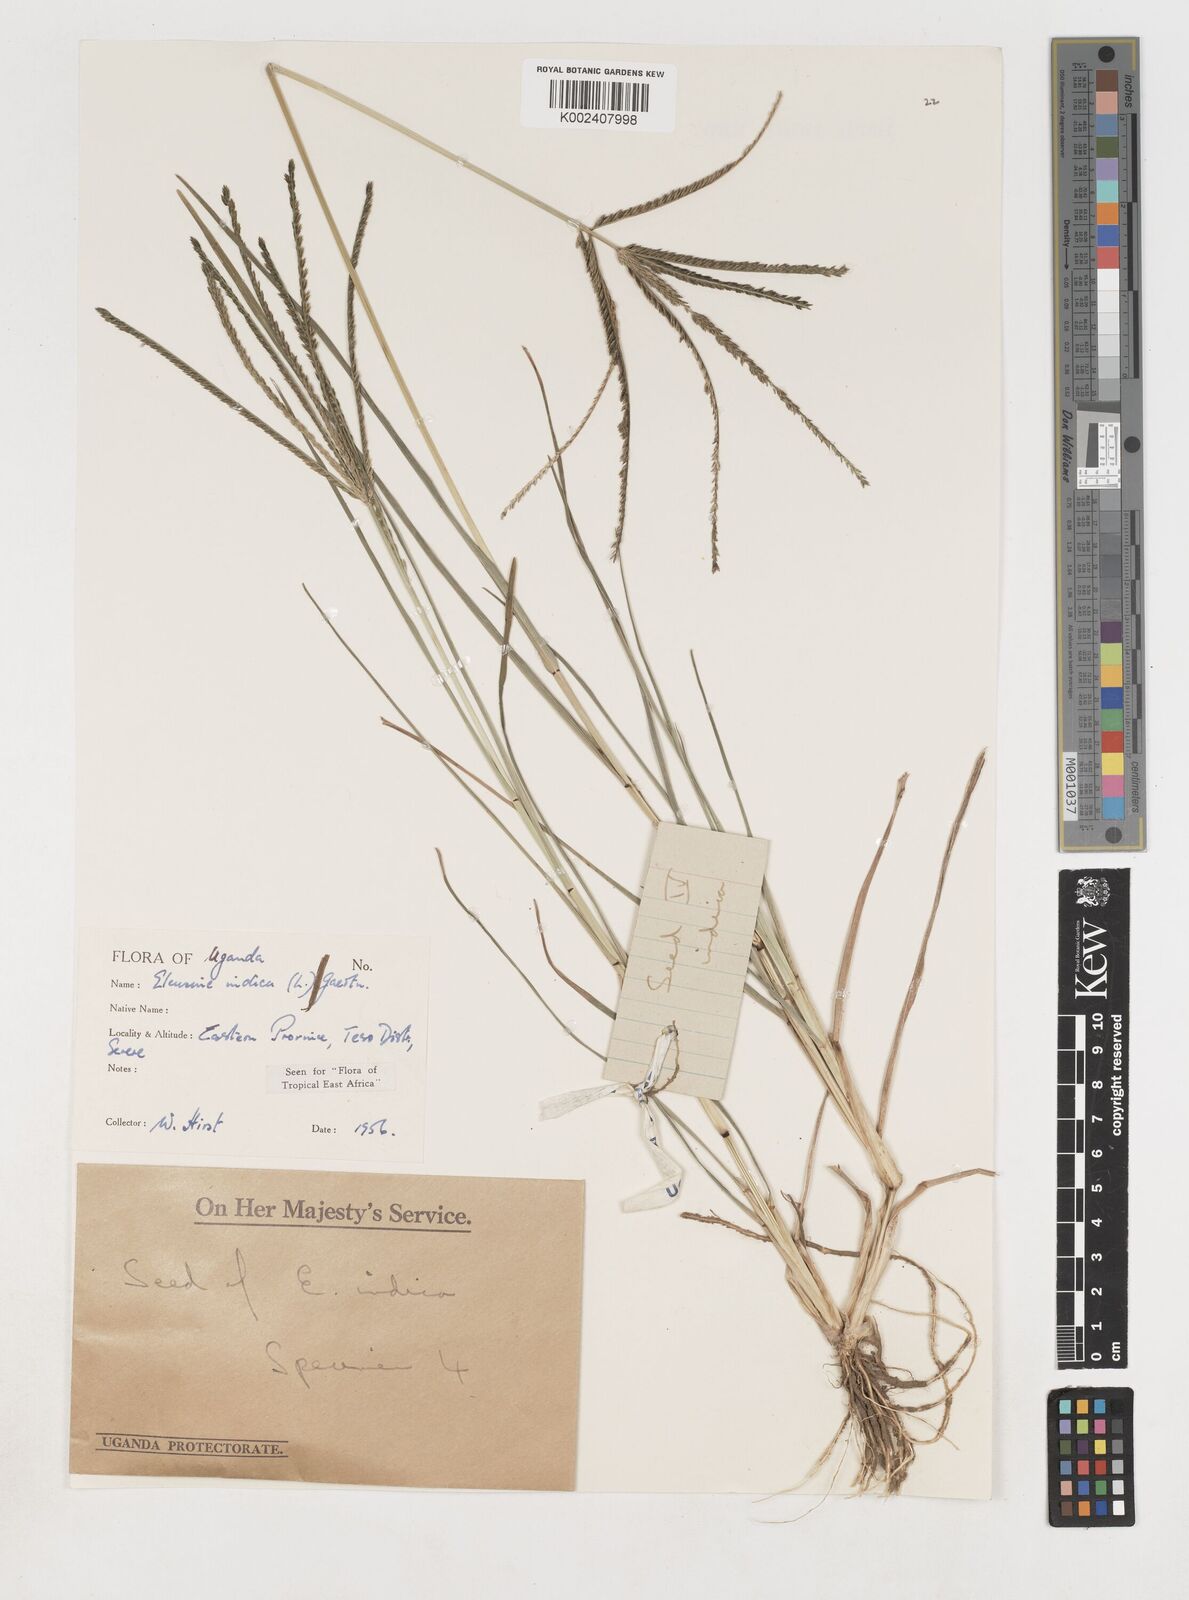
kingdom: Plantae
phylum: Tracheophyta
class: Liliopsida
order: Poales
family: Poaceae
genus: Eleusine
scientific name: Eleusine indica
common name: Yard-grass
